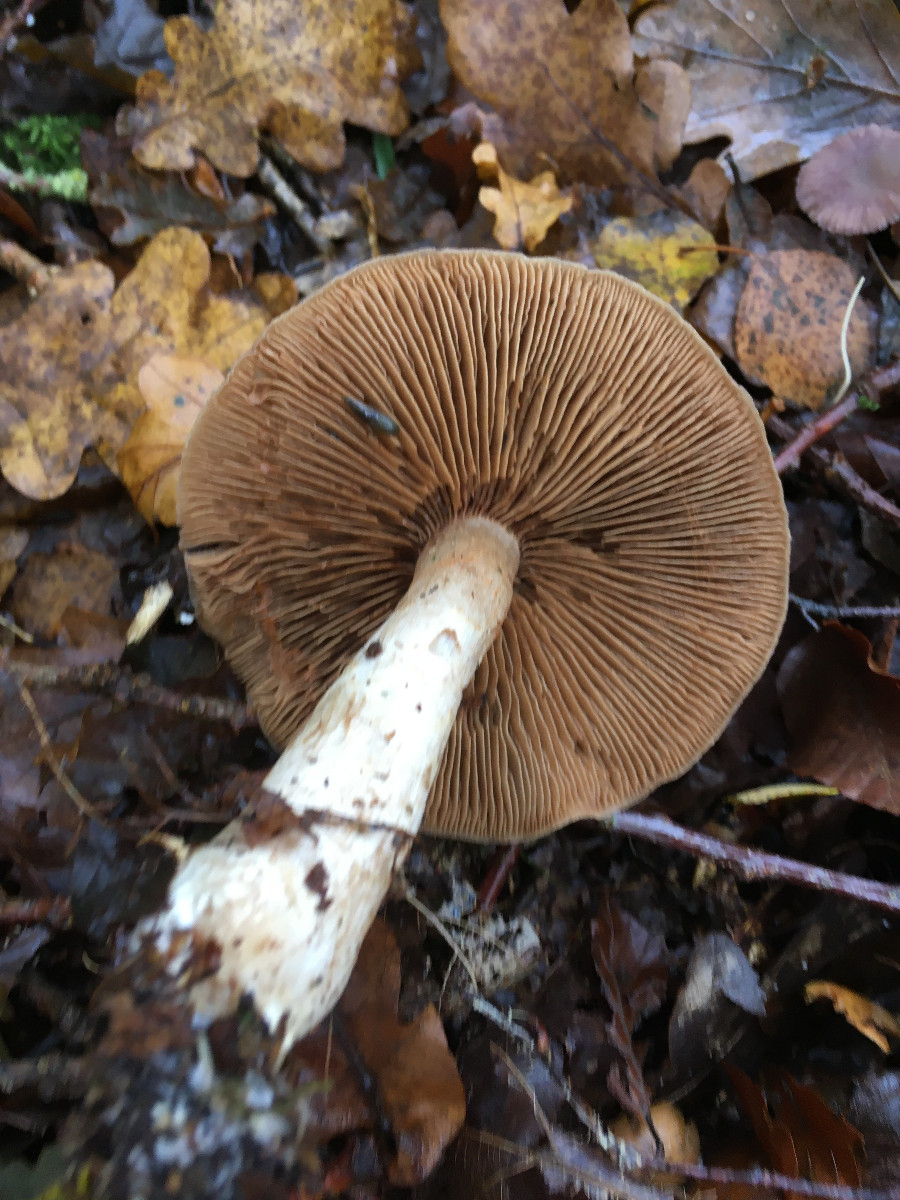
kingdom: Fungi
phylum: Basidiomycota
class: Agaricomycetes
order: Agaricales
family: Cortinariaceae
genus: Cortinarius
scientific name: Cortinarius
